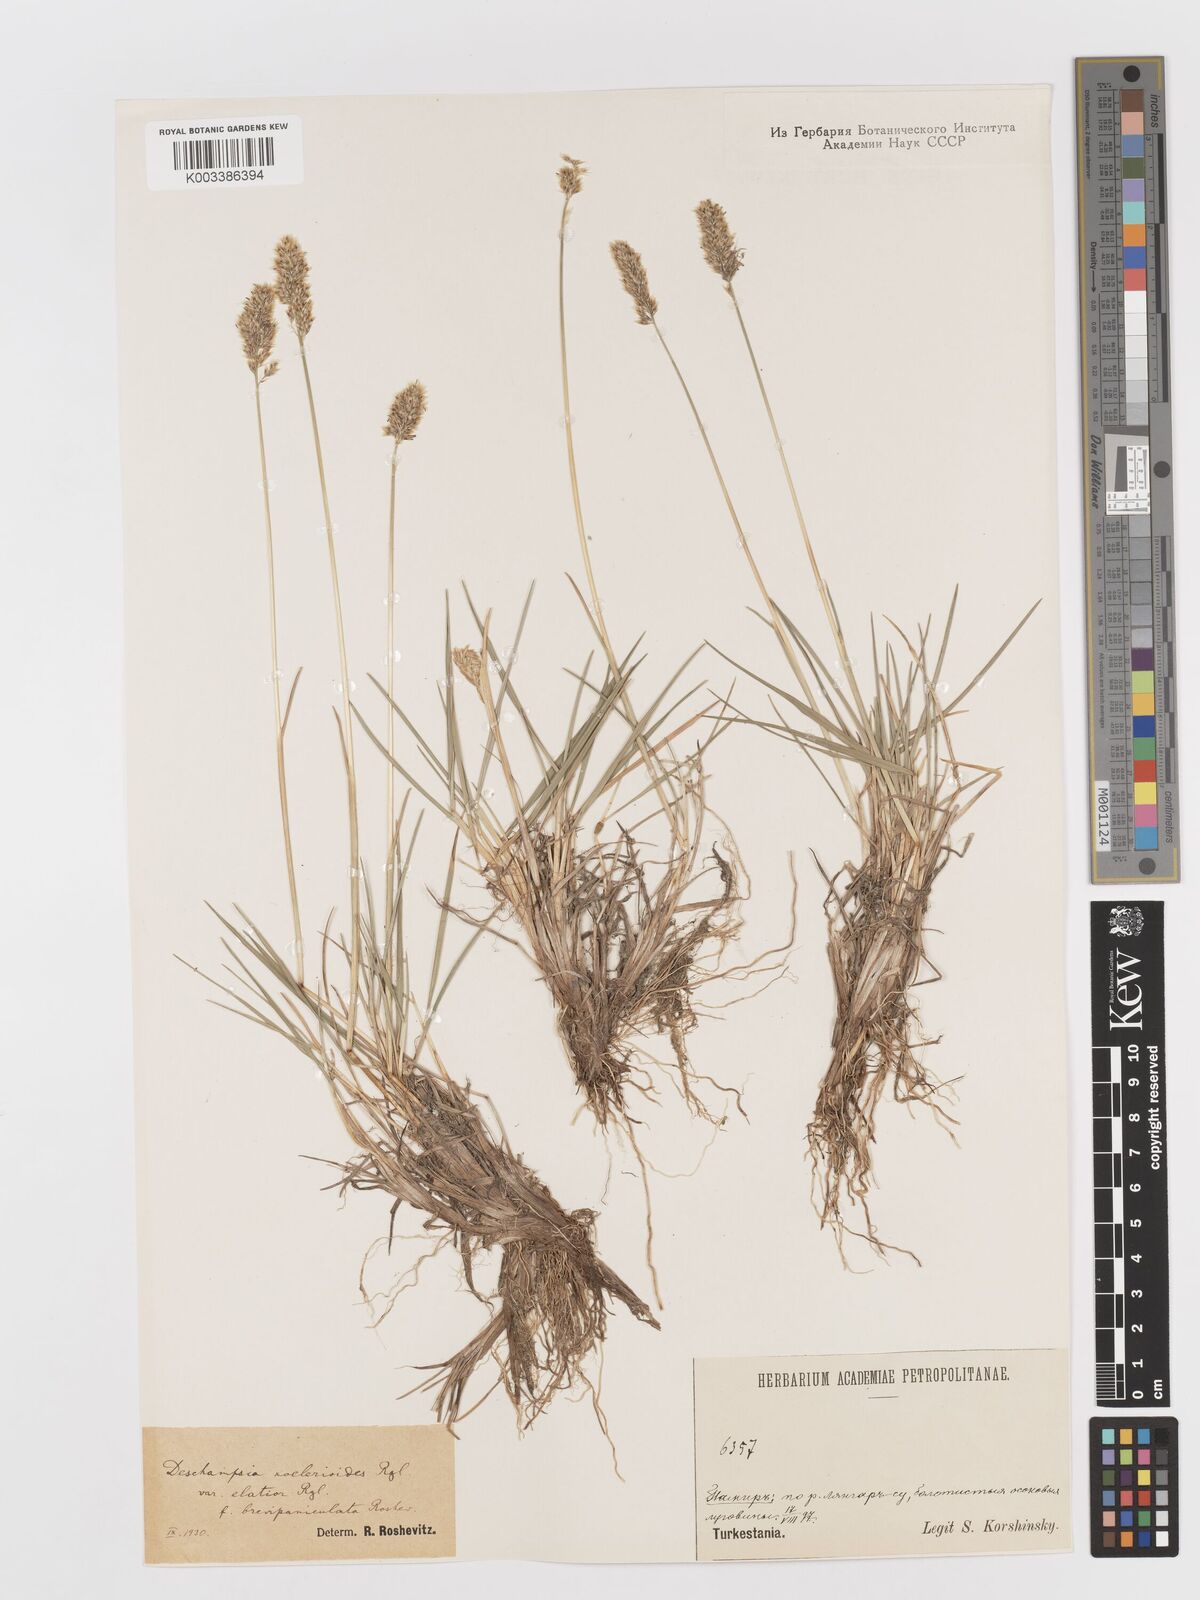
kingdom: Plantae
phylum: Tracheophyta
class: Liliopsida
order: Poales
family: Poaceae
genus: Deschampsia
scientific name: Deschampsia koelerioides
